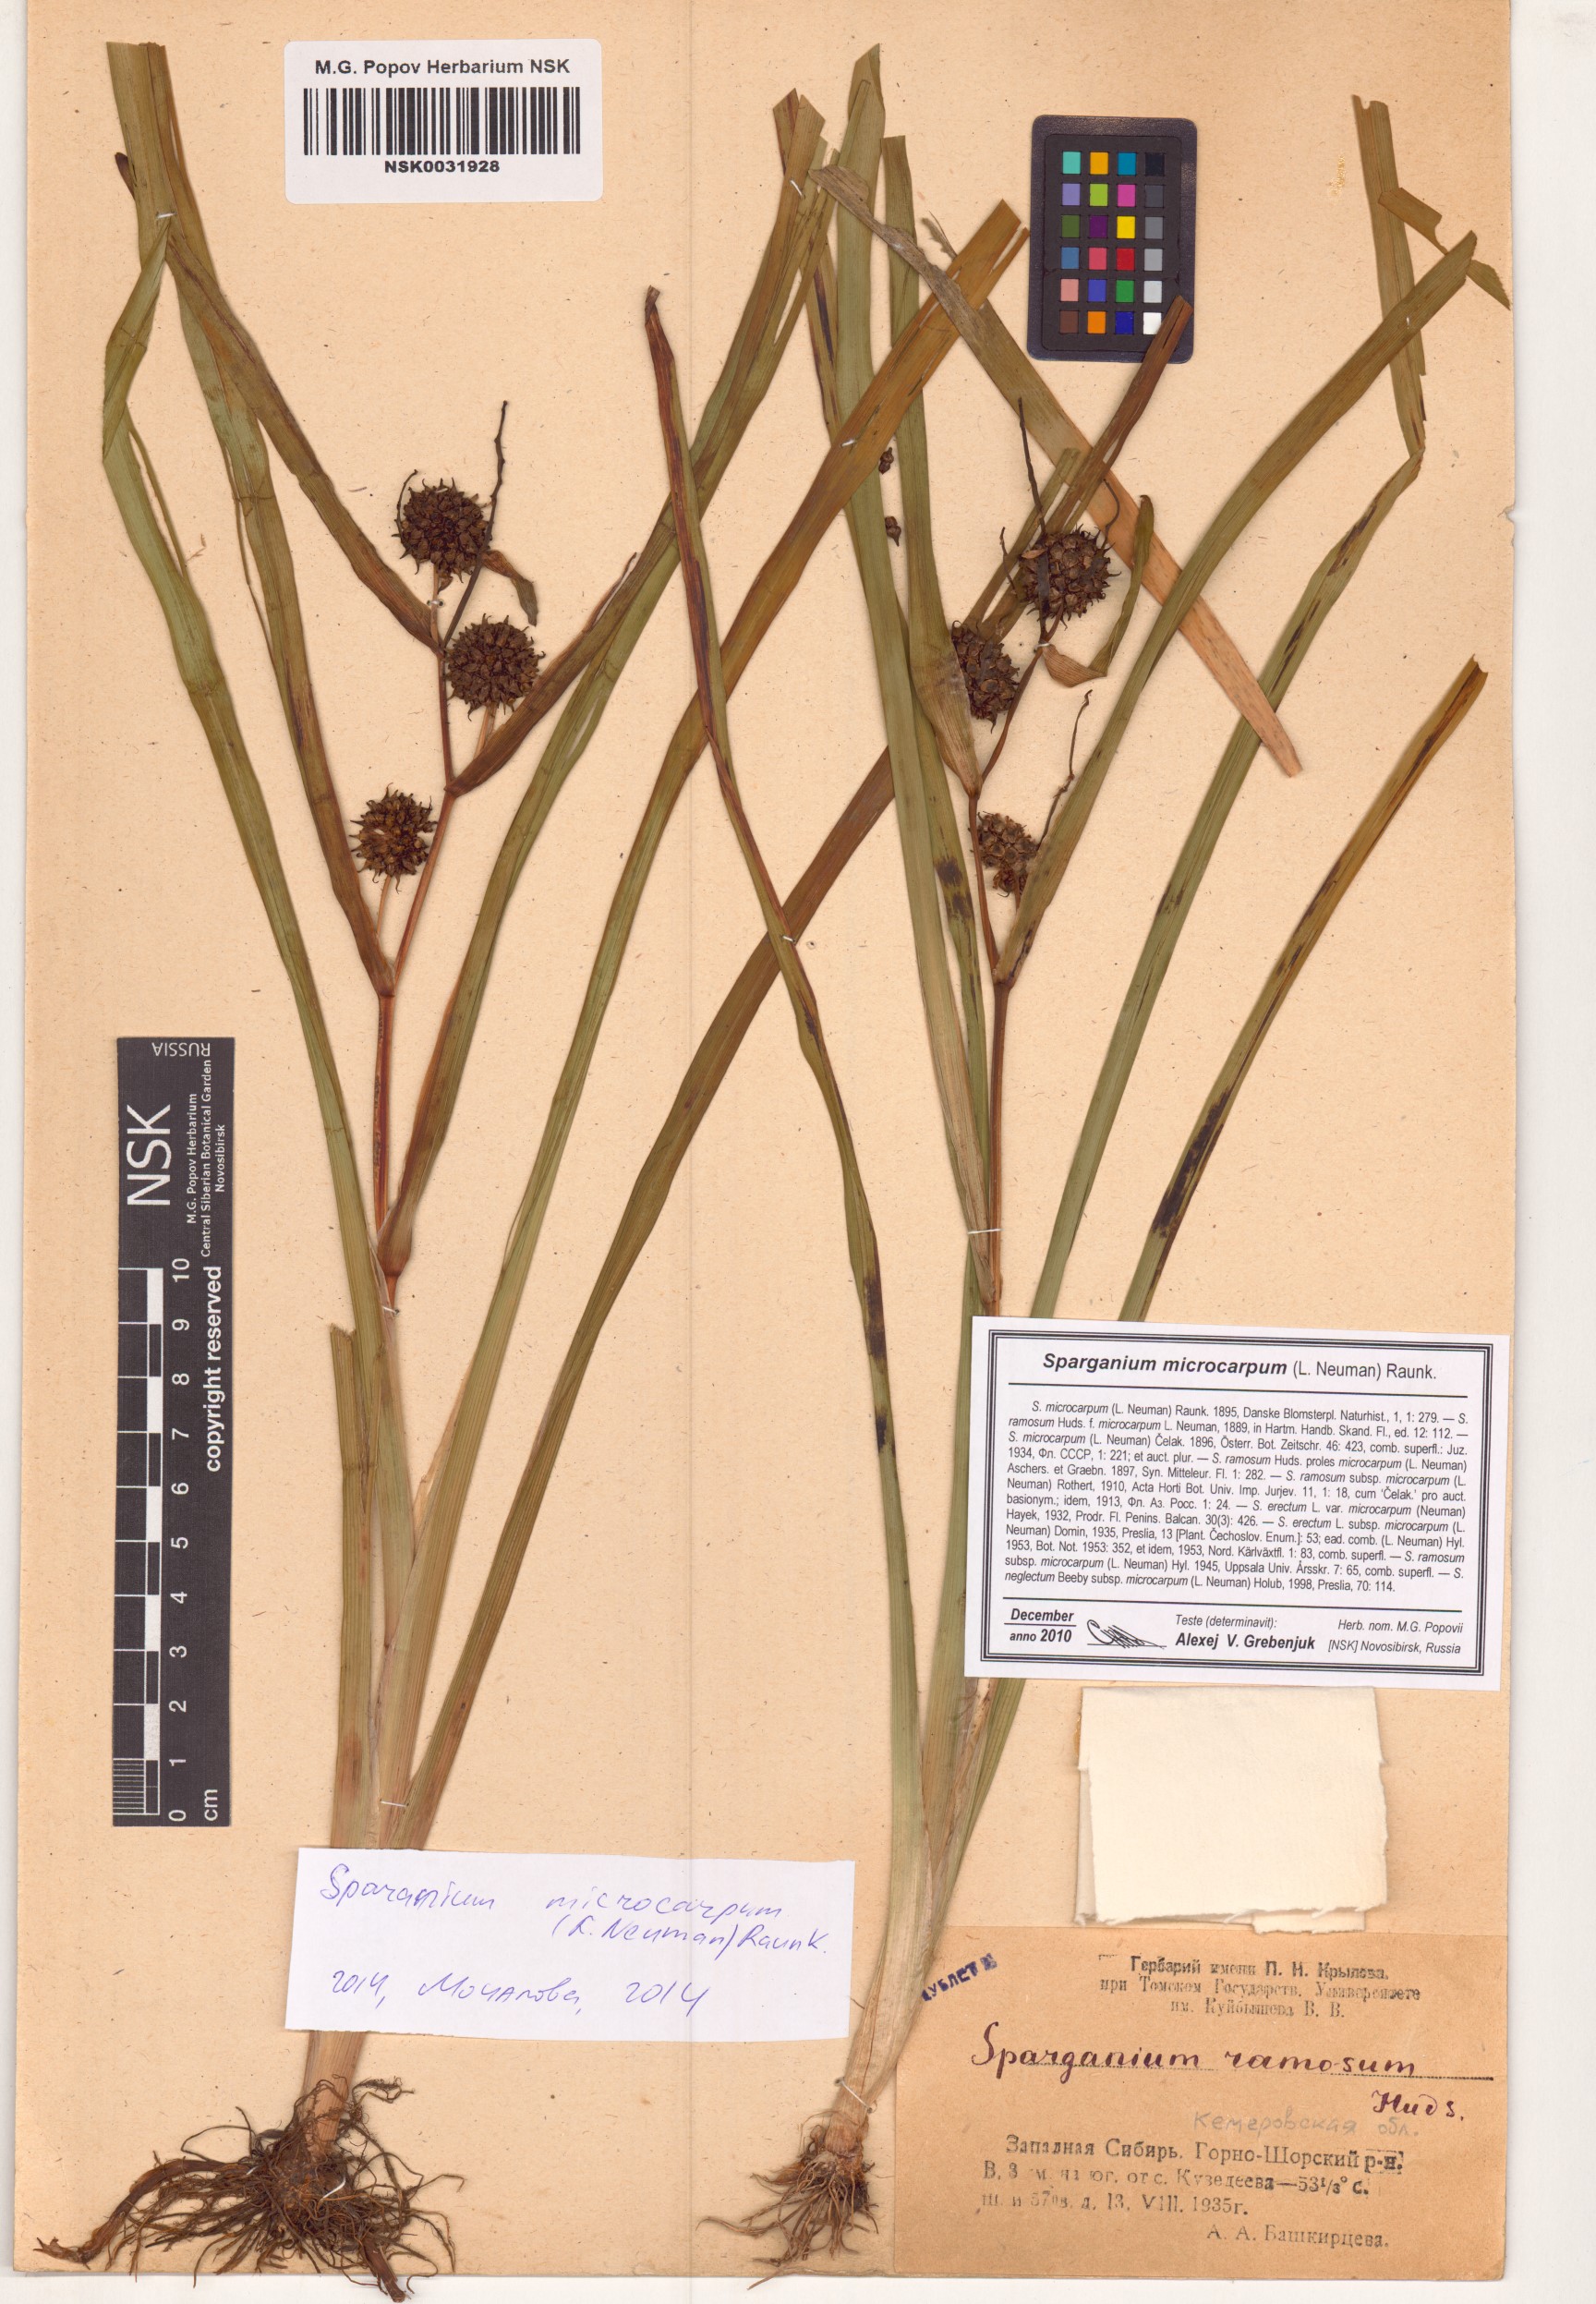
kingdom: Plantae
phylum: Tracheophyta
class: Liliopsida
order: Poales
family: Typhaceae
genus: Sparganium
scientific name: Sparganium erectum
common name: Branched bur-reed
